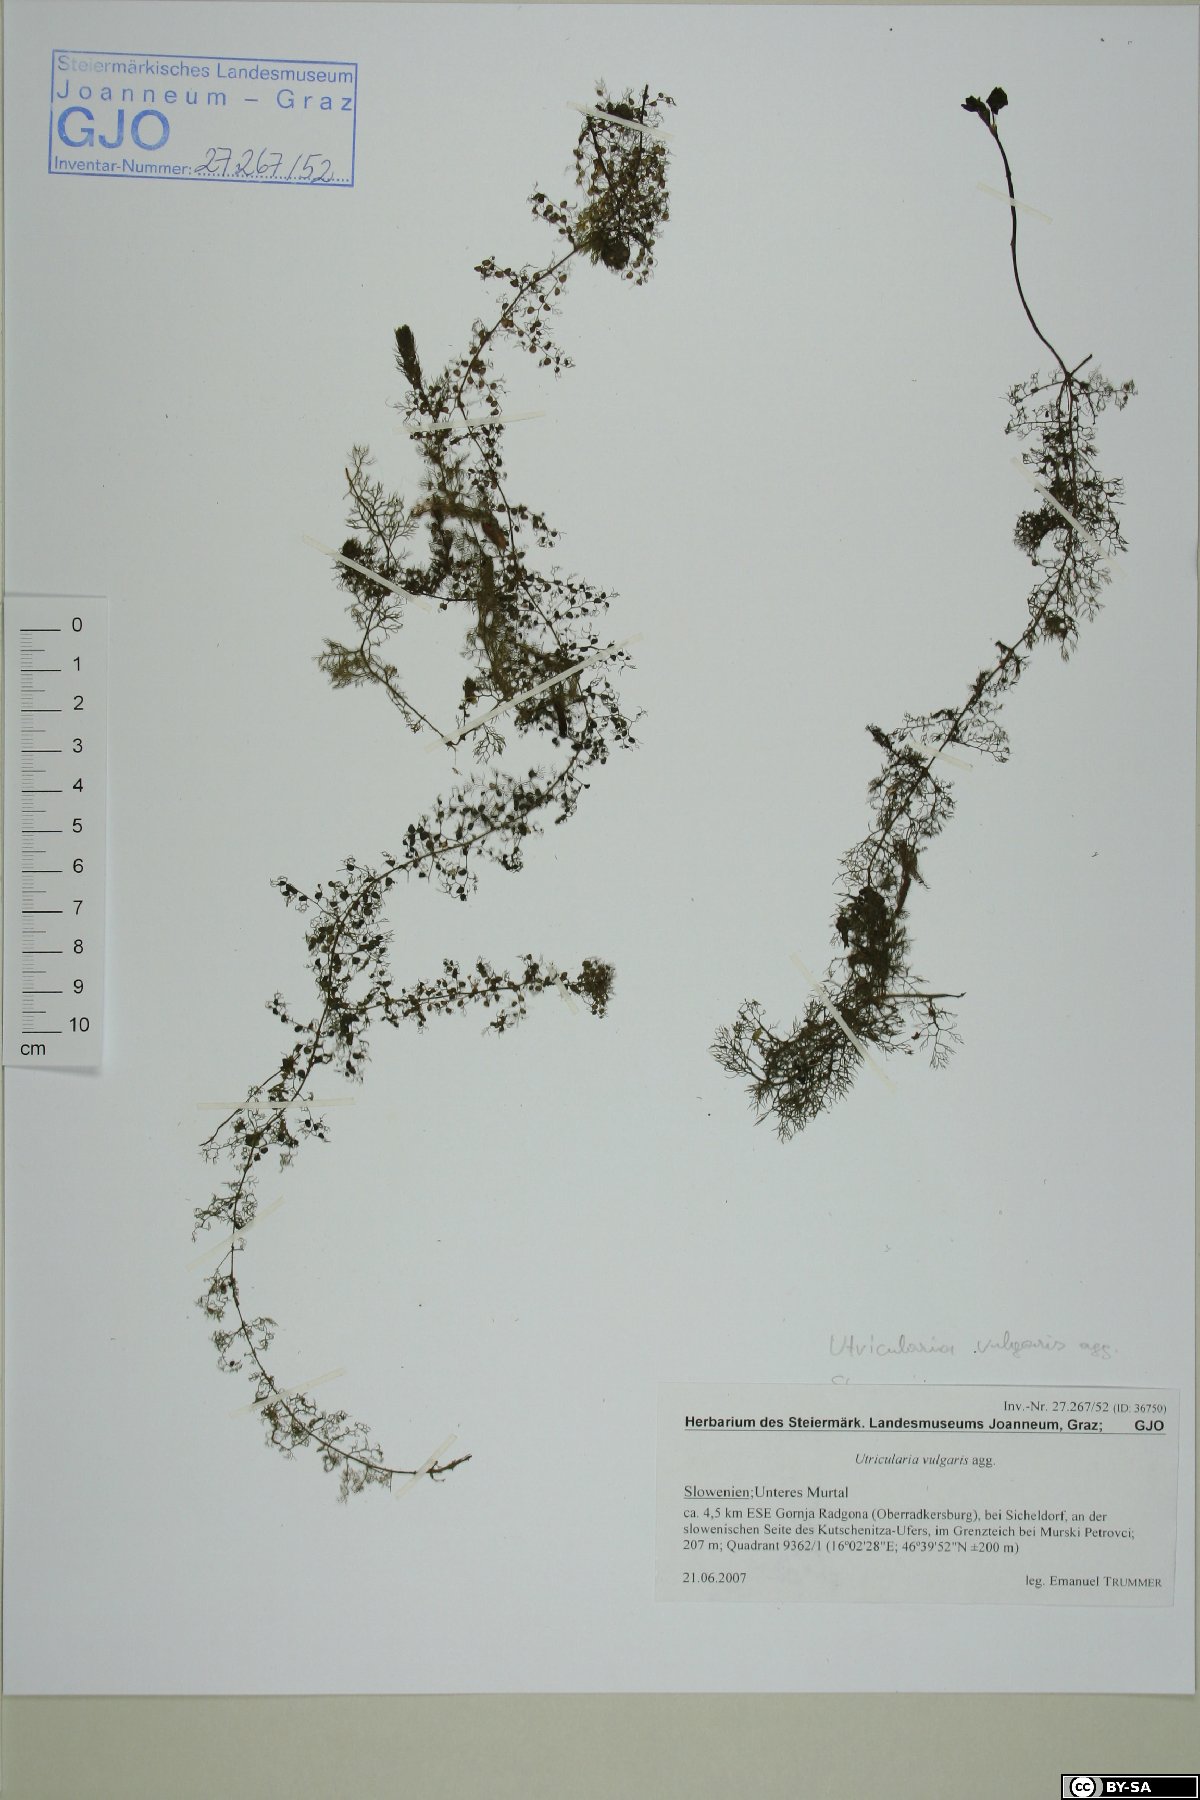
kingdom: Plantae
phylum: Tracheophyta
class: Magnoliopsida
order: Lamiales
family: Lentibulariaceae
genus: Utricularia
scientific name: Utricularia vulgaris
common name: Greater bladderwort
